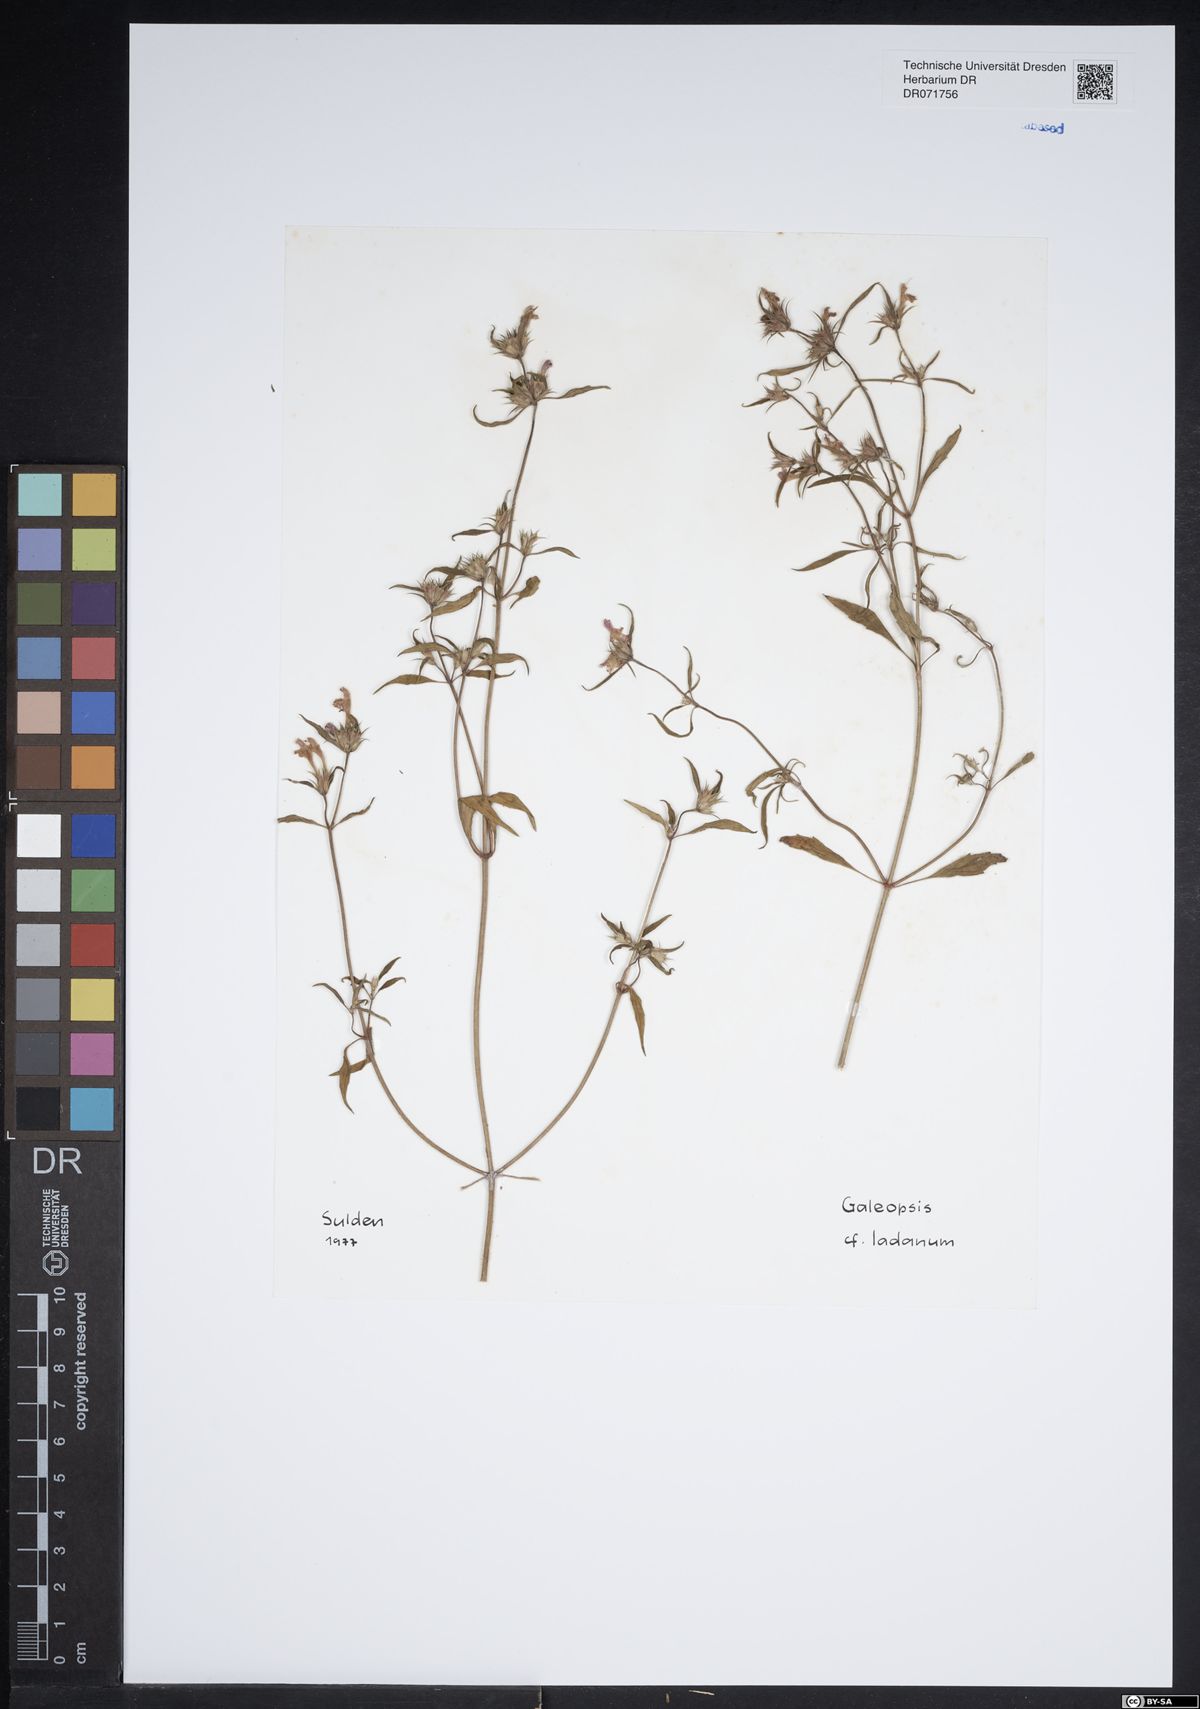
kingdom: Plantae
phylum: Tracheophyta
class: Magnoliopsida
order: Lamiales
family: Lamiaceae
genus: Galeopsis
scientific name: Galeopsis ladanum
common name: Broad-leaved hemp-nettle
